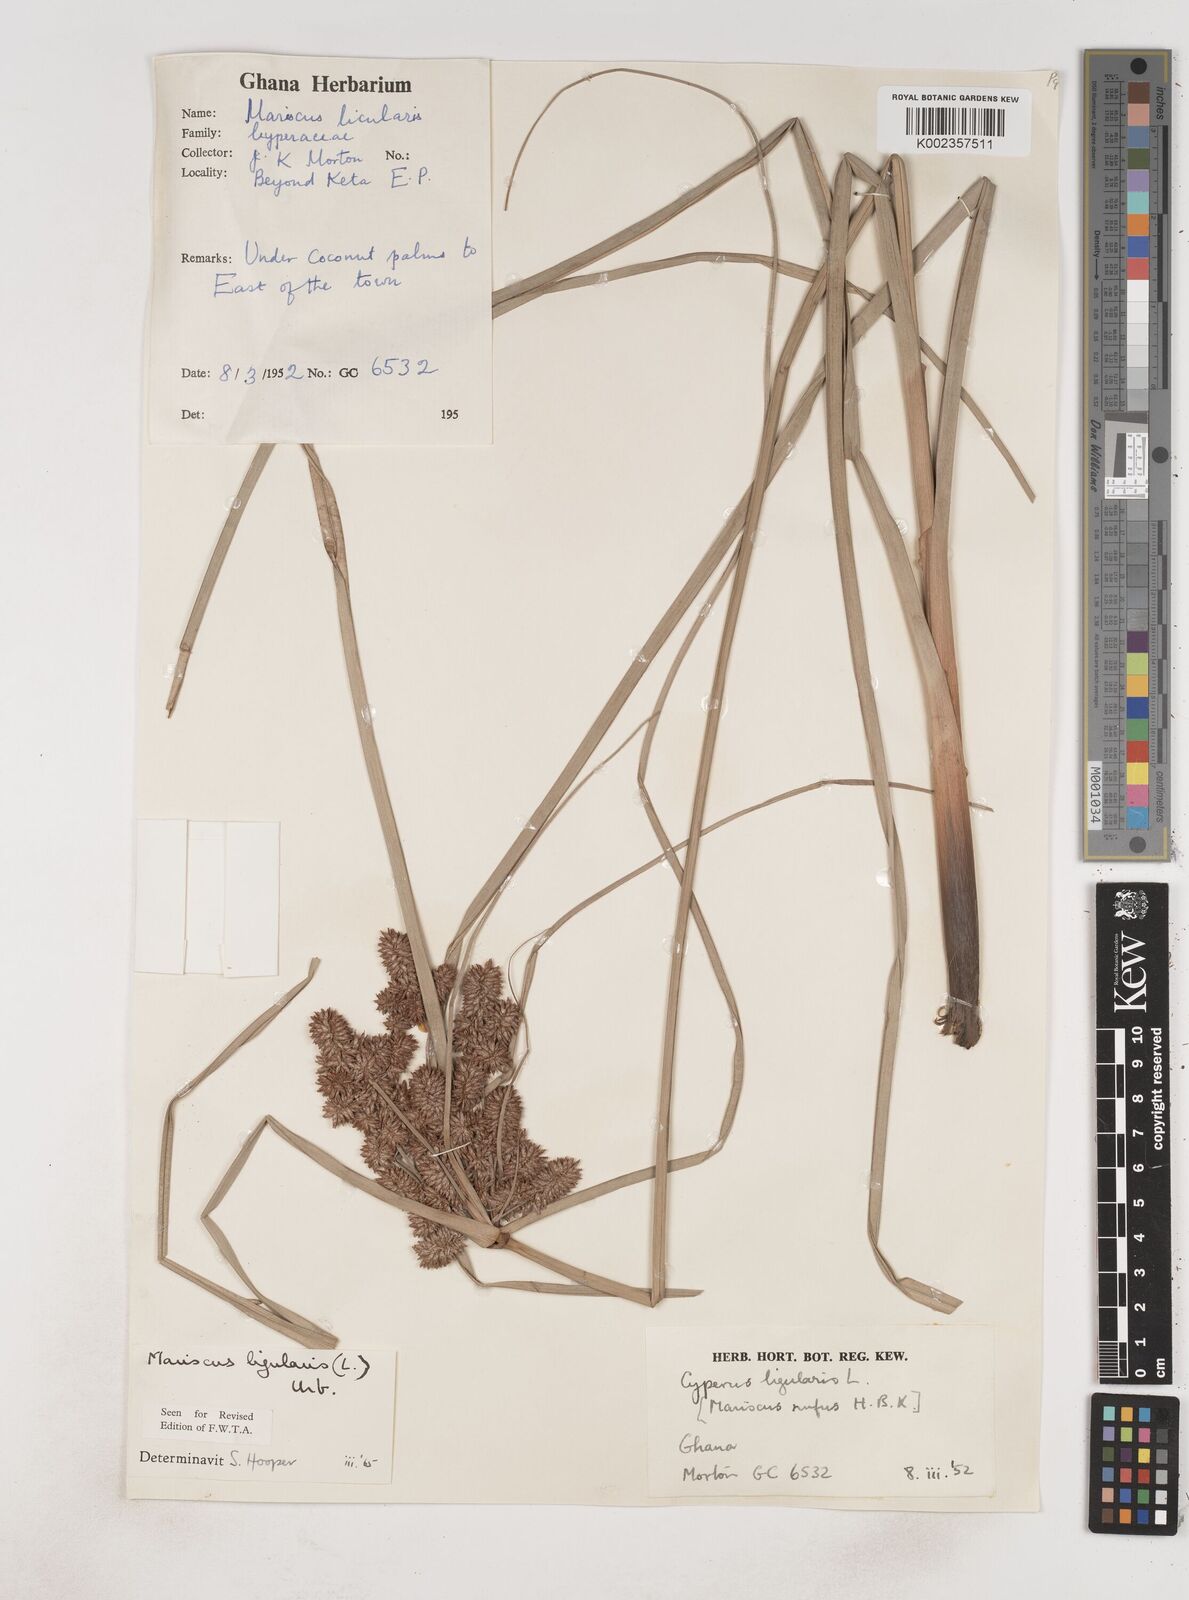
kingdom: Plantae
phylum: Tracheophyta
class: Liliopsida
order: Poales
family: Cyperaceae
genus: Cyperus
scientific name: Cyperus ligularis
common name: Swamp flat sedge
